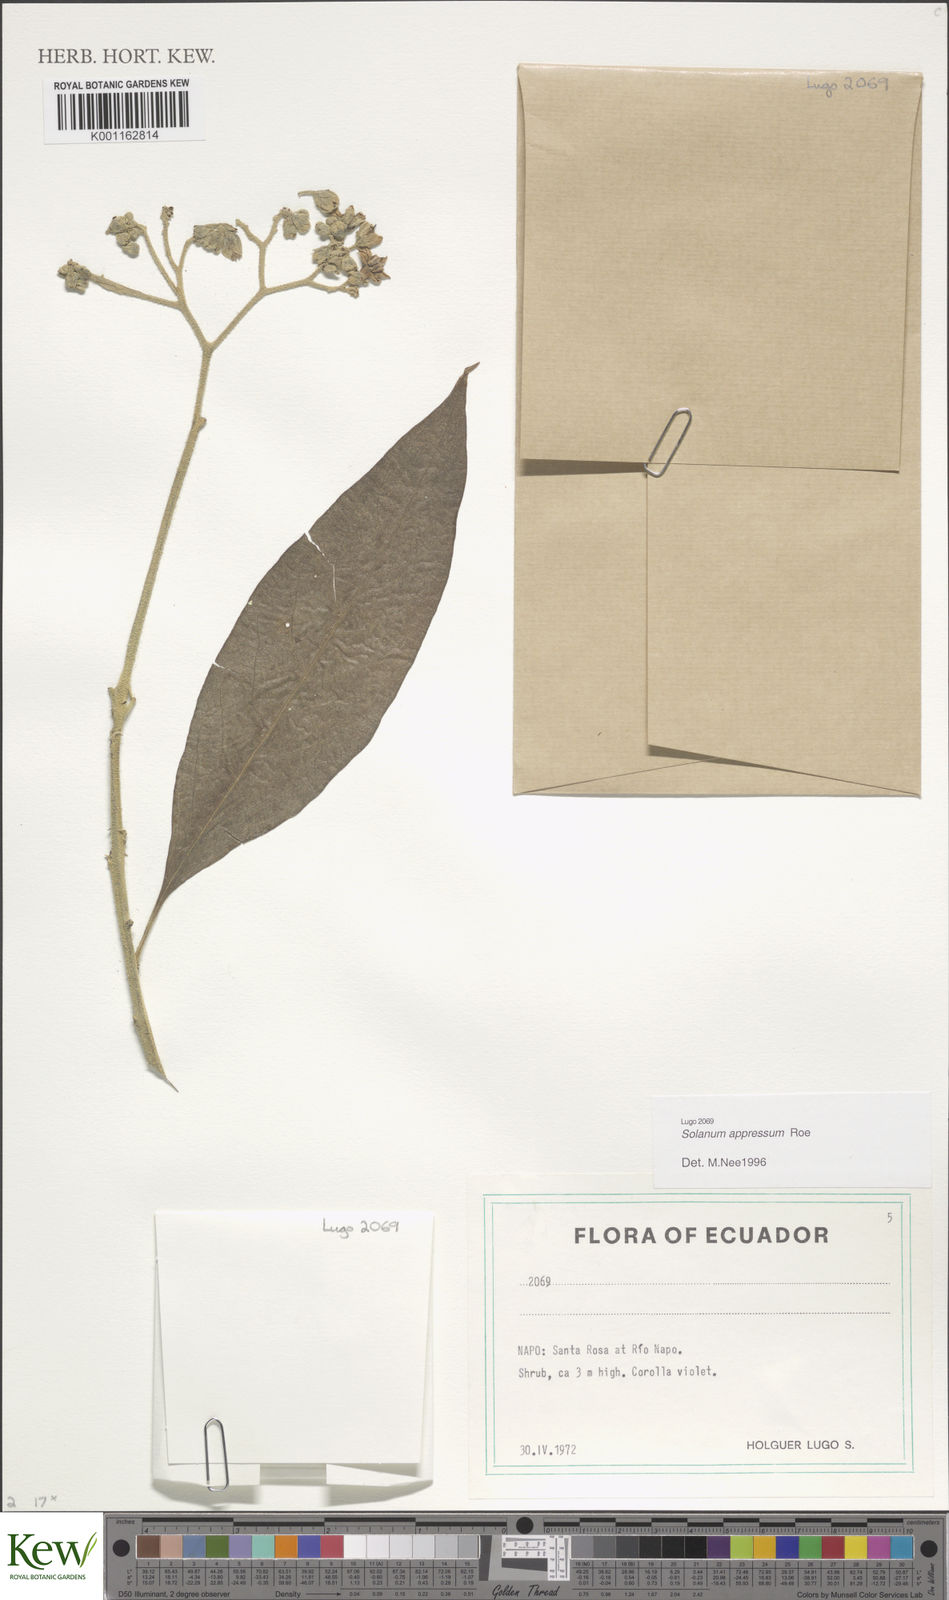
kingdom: Plantae
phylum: Tracheophyta
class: Magnoliopsida
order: Solanales
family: Solanaceae
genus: Solanum
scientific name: Solanum appressum
